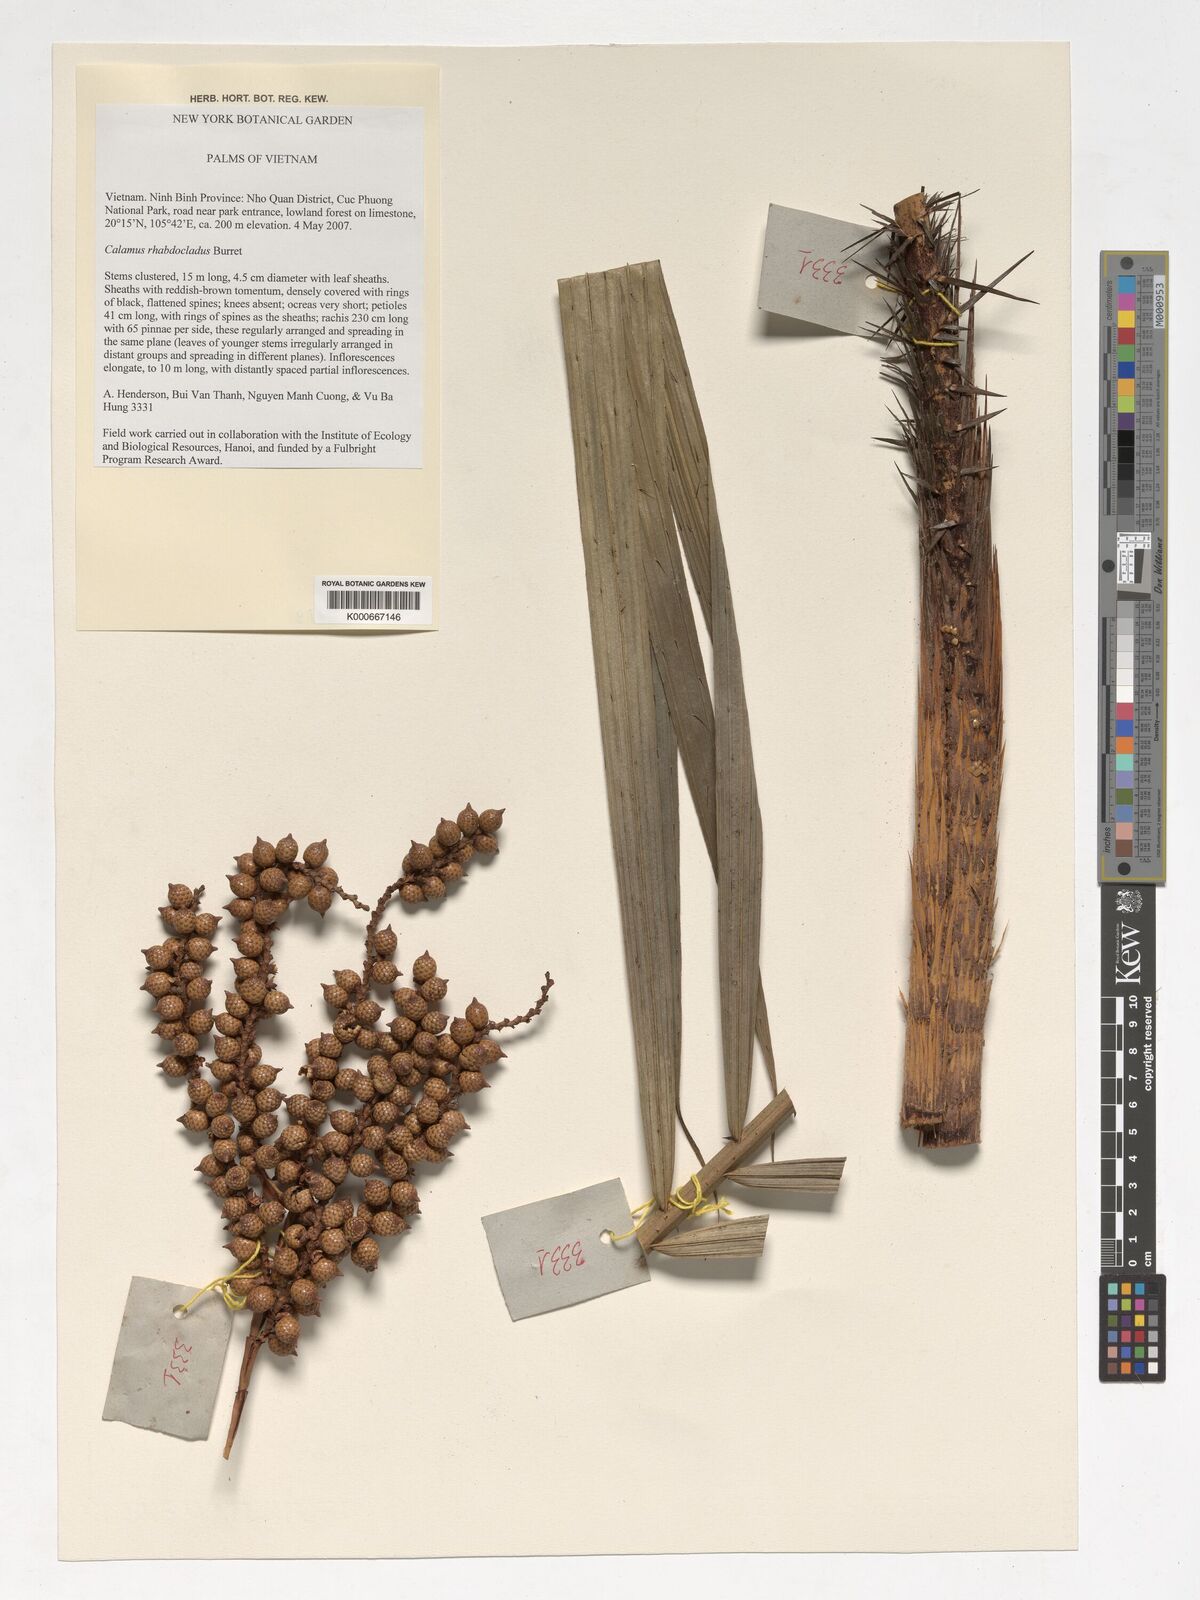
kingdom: Plantae
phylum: Tracheophyta
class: Liliopsida
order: Arecales
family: Arecaceae
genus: Calamus
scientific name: Calamus rhabdocladus
